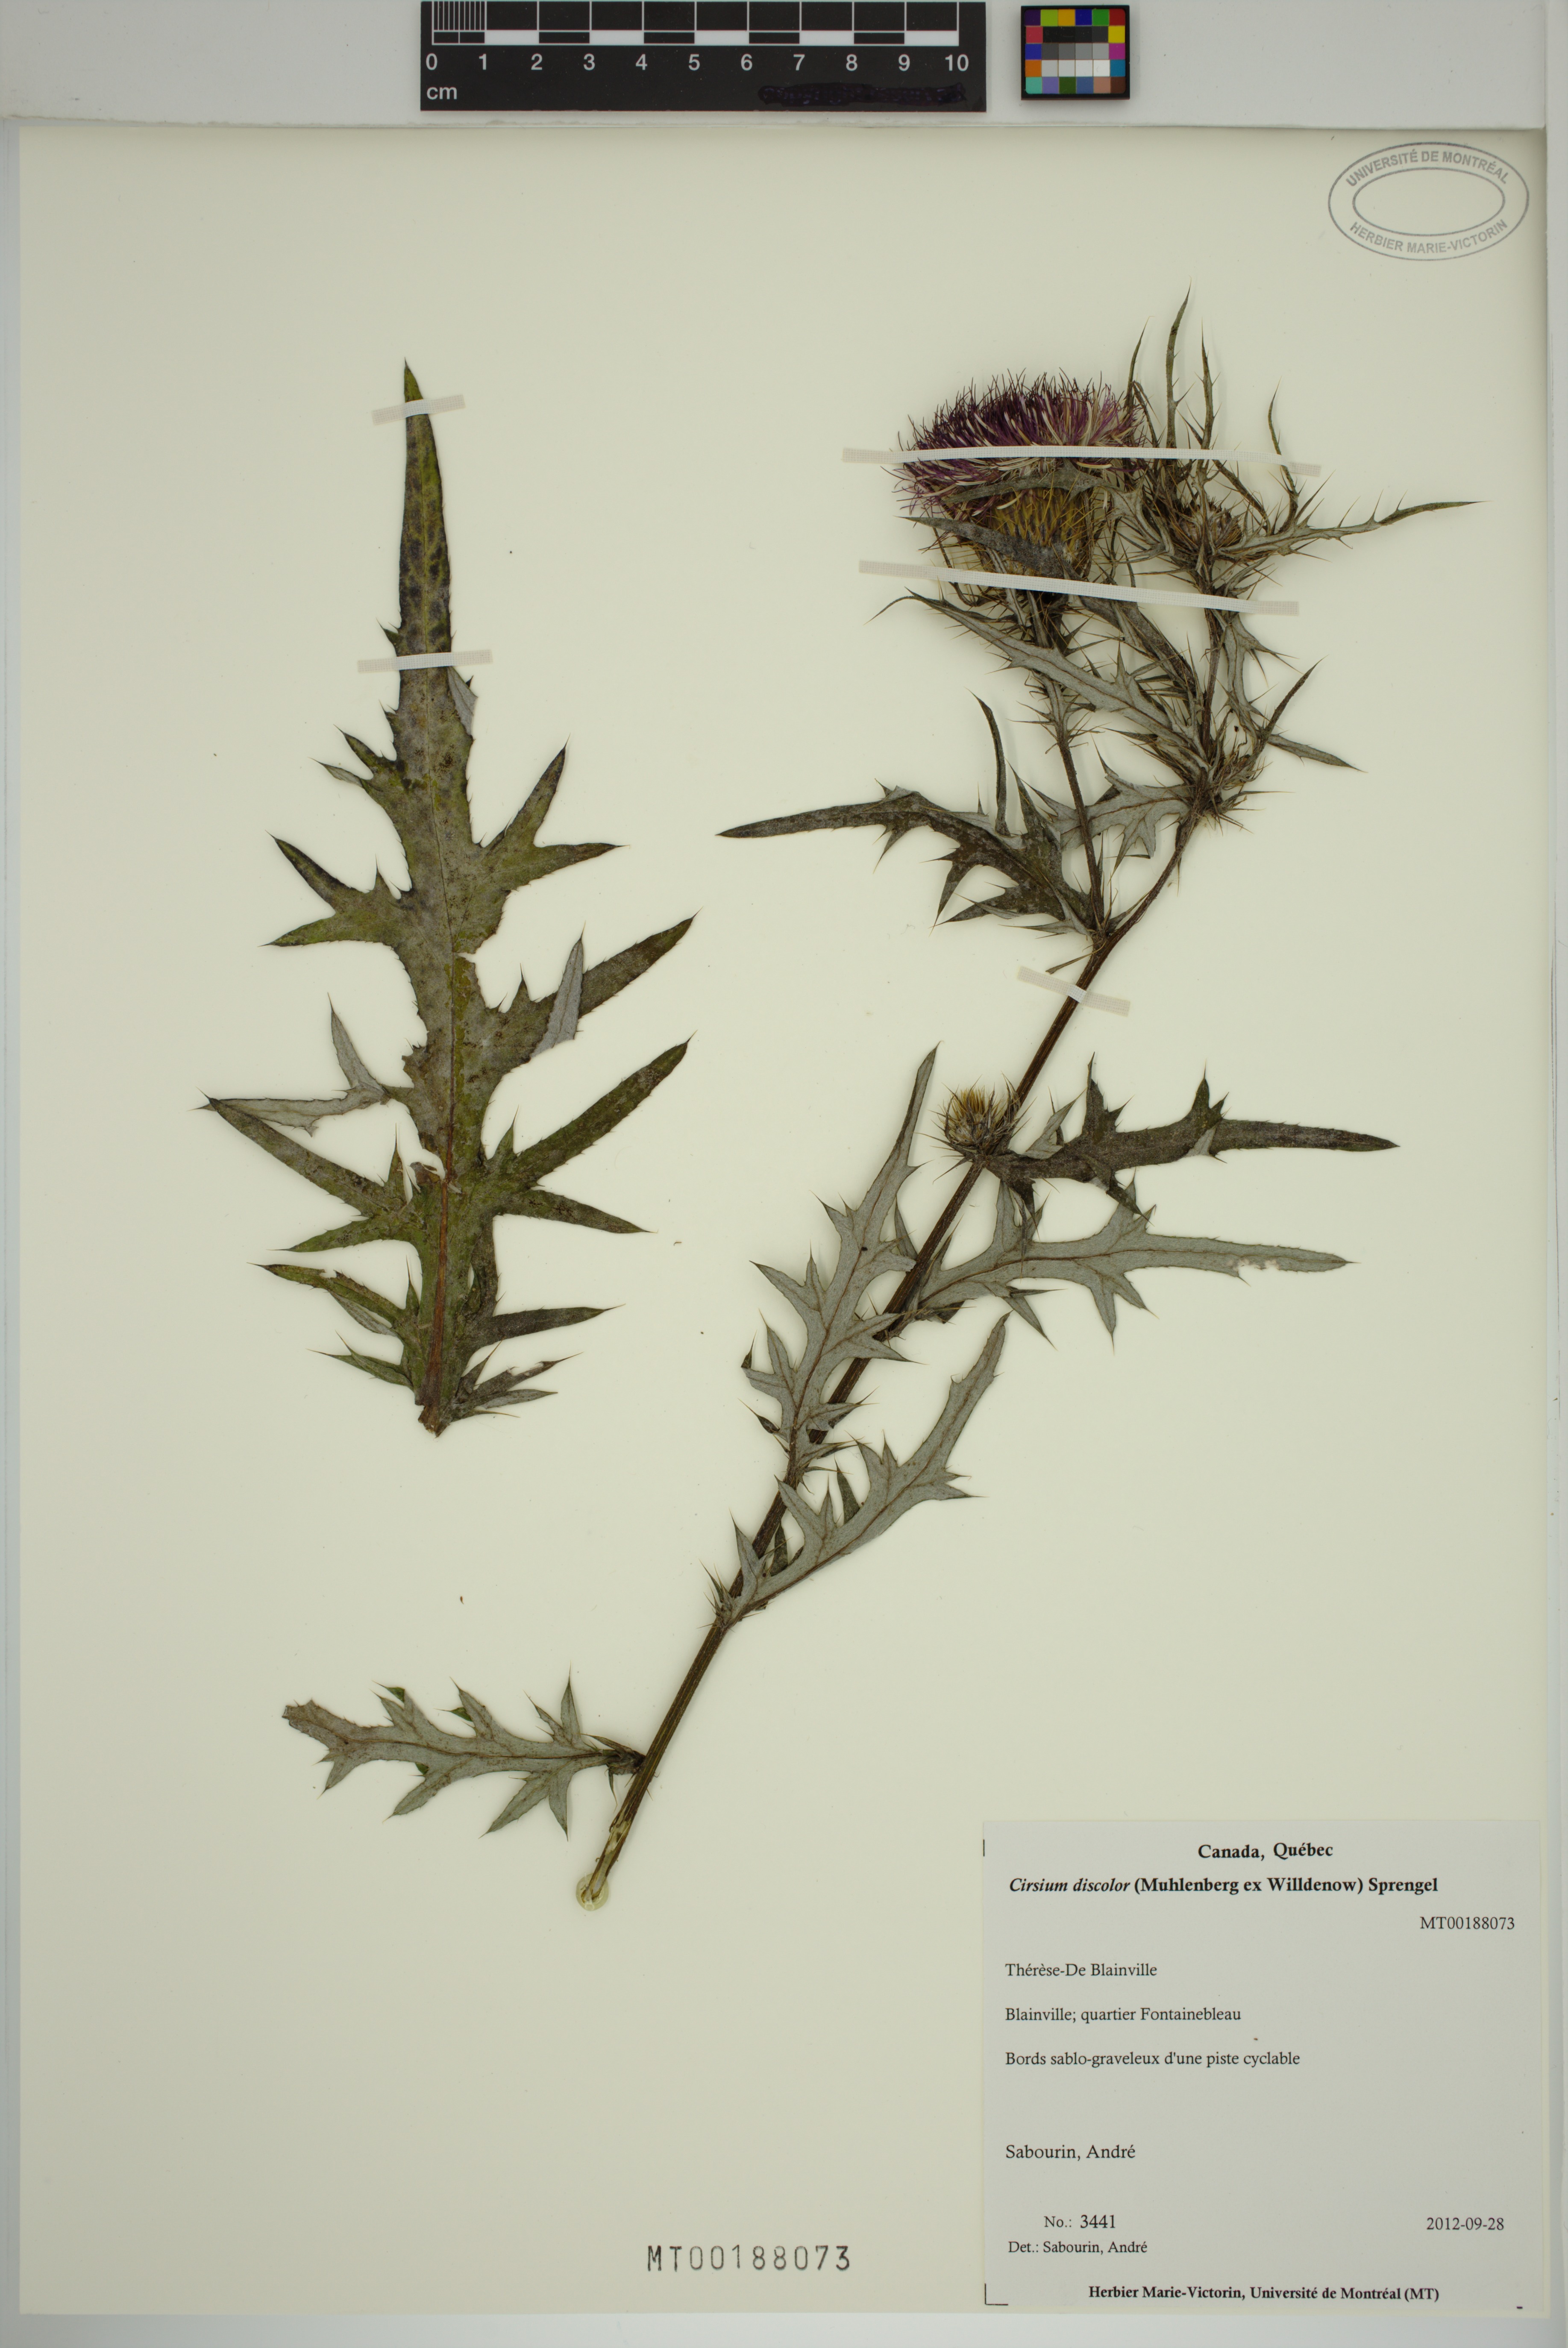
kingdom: Plantae
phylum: Tracheophyta
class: Magnoliopsida
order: Asterales
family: Asteraceae
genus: Cirsium
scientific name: Cirsium discolor
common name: Field thistle
